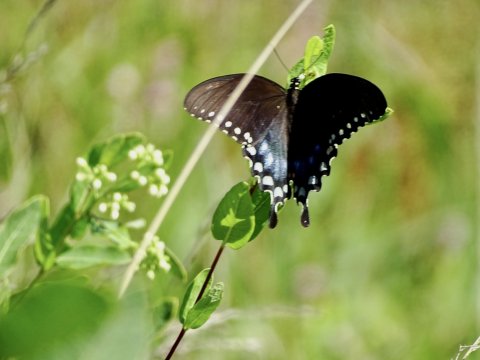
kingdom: Animalia
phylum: Arthropoda
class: Insecta
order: Lepidoptera
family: Papilionidae
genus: Pterourus
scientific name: Pterourus troilus
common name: Spicebush Swallowtail
